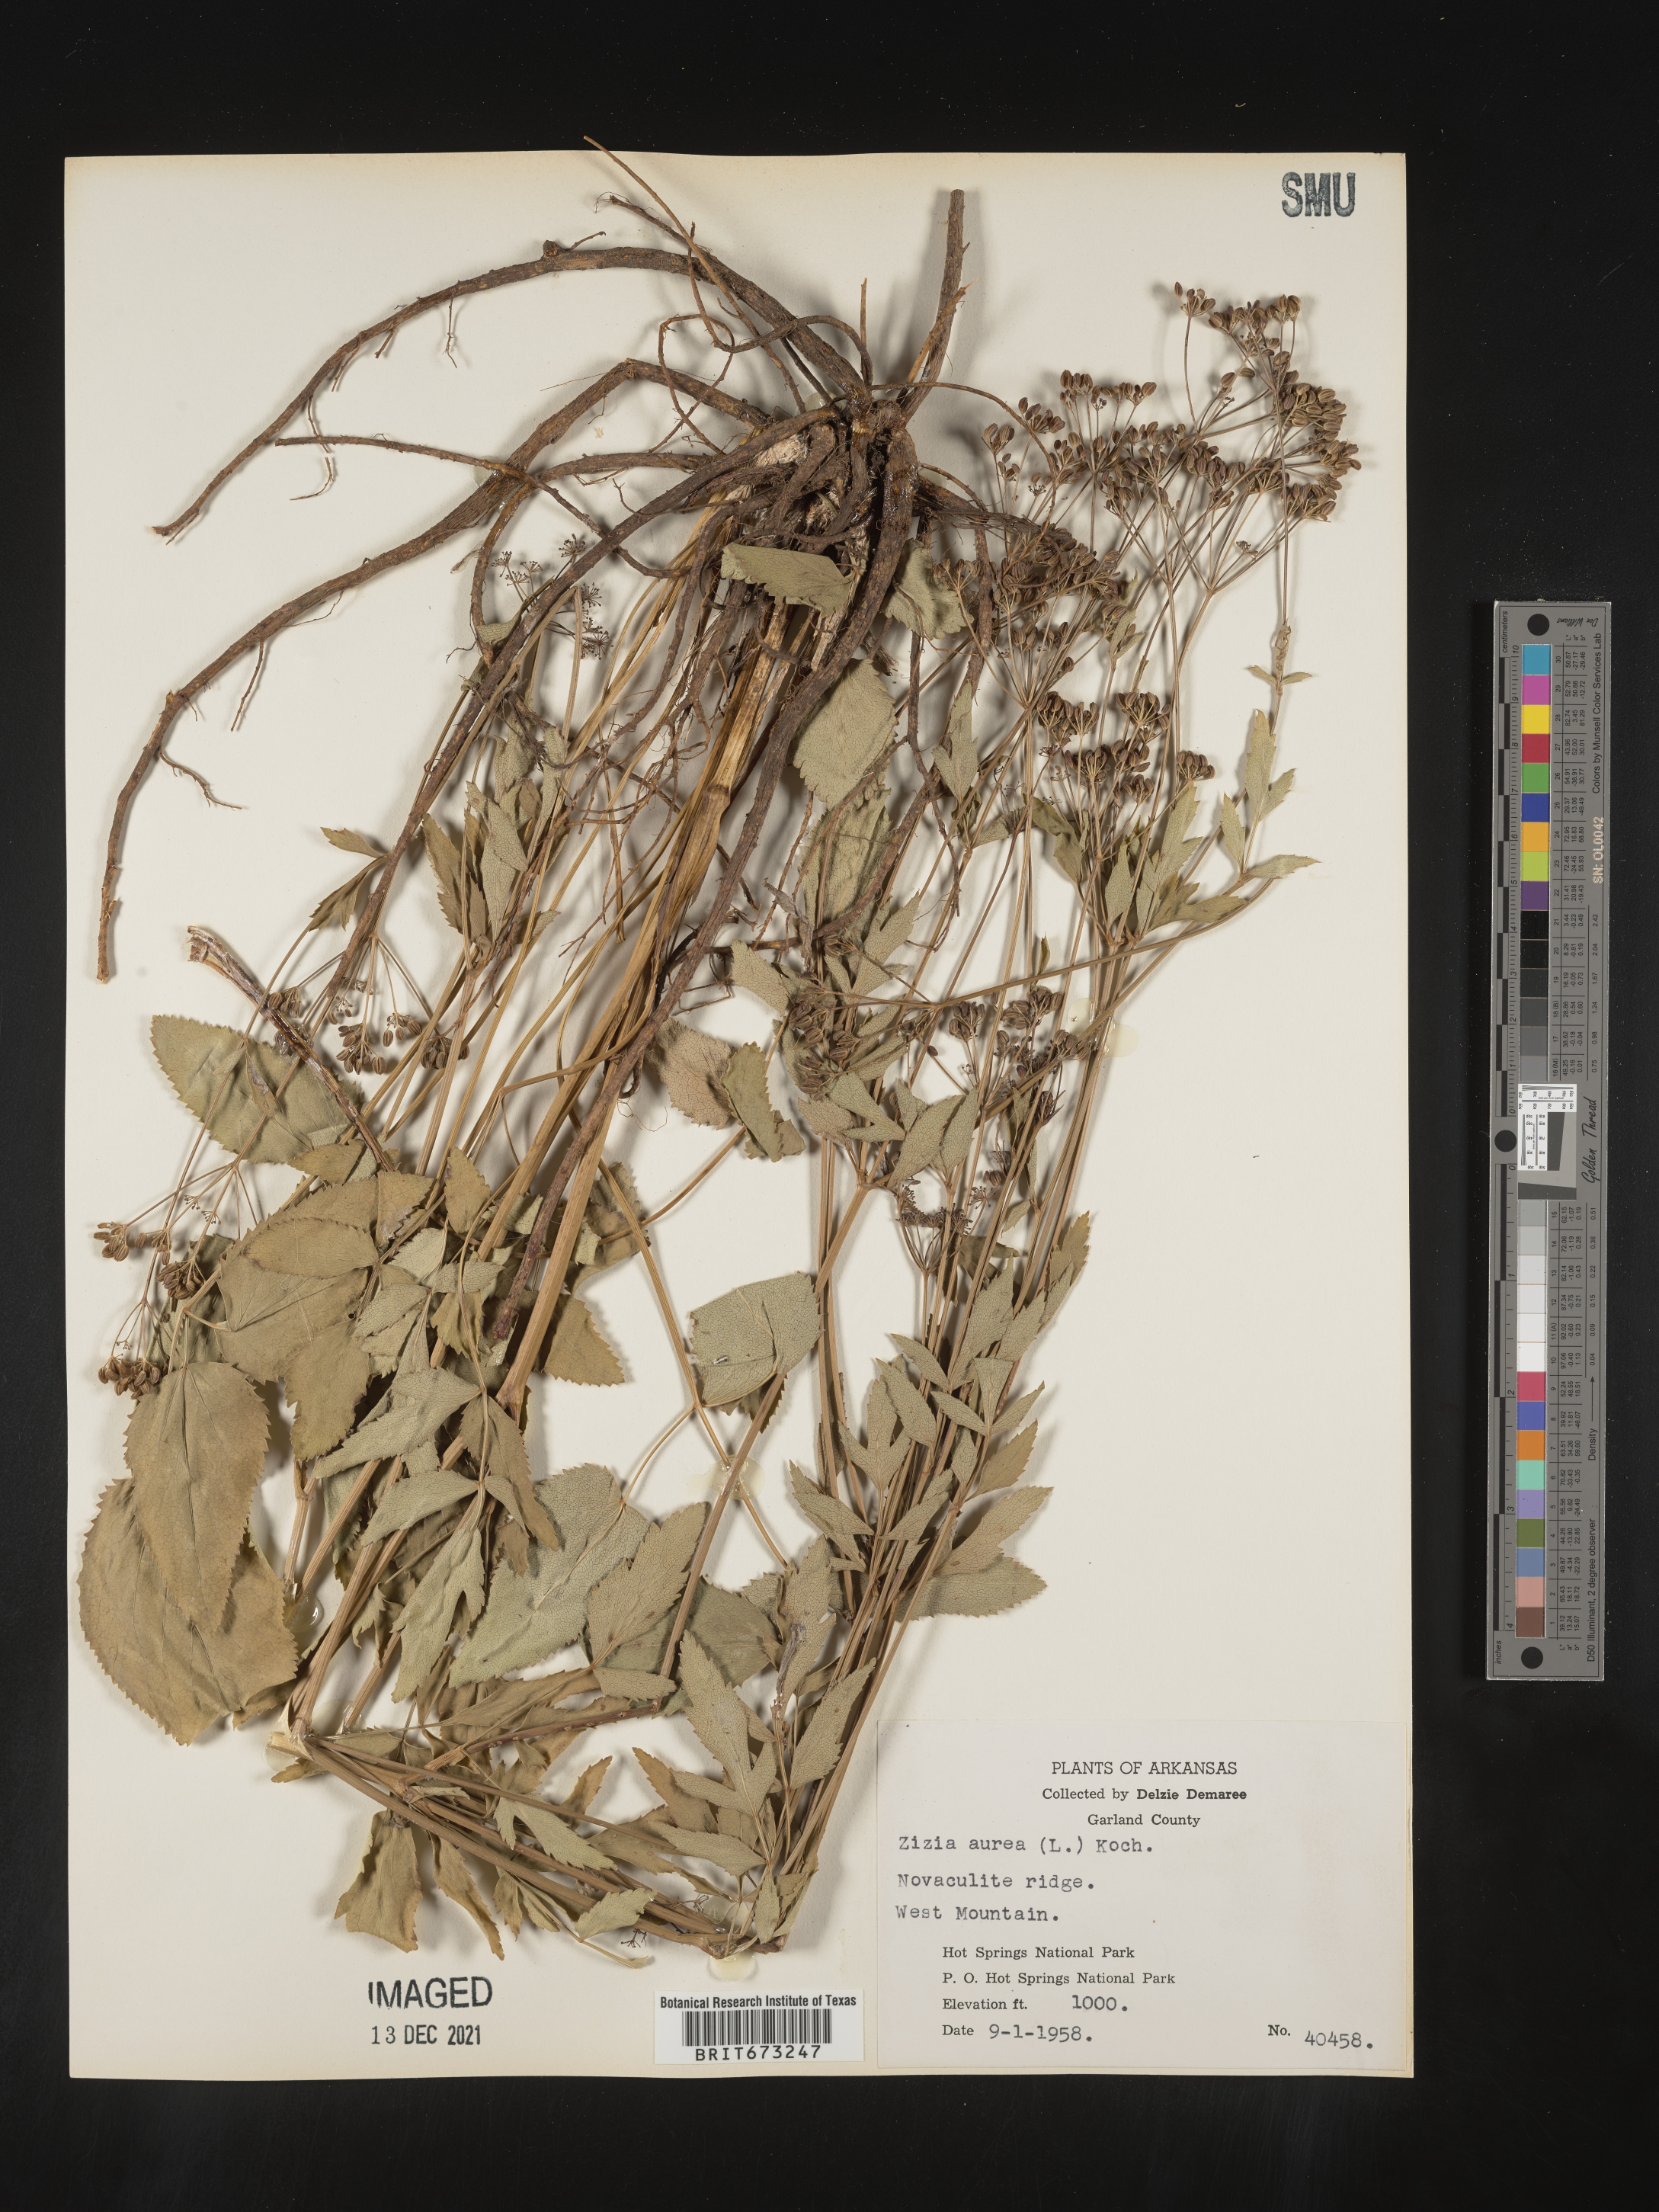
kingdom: Plantae
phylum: Tracheophyta
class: Magnoliopsida
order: Apiales
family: Apiaceae
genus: Zizia
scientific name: Zizia aurea
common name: Golden alexanders
